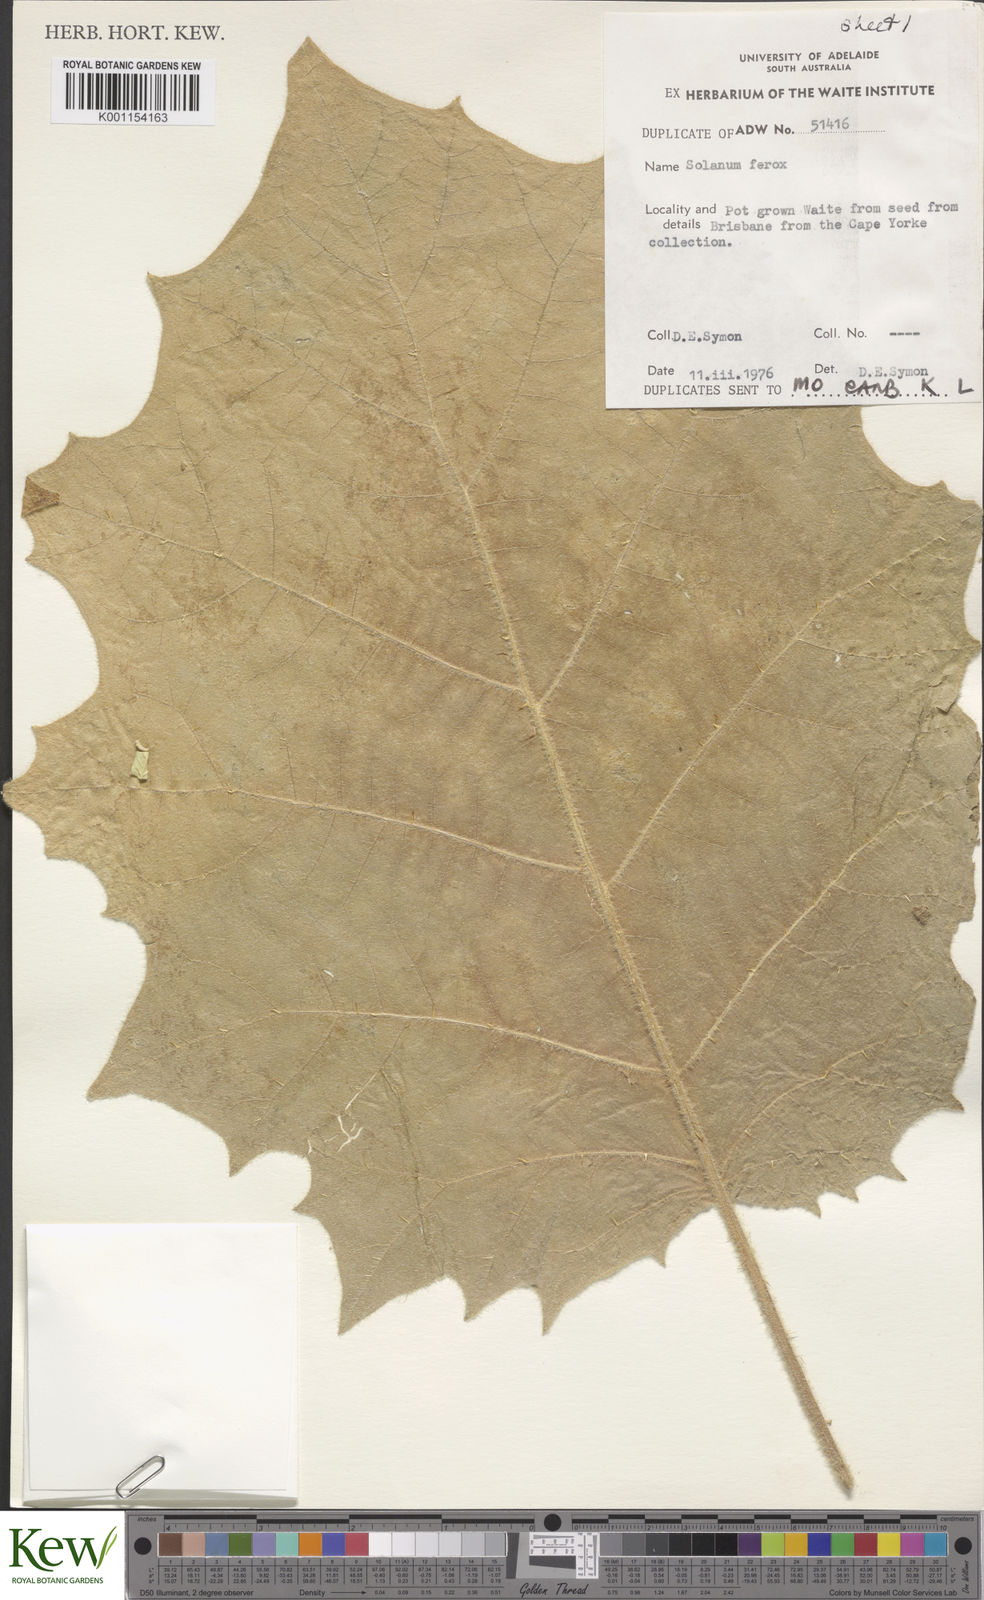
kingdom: Plantae
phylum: Tracheophyta
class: Magnoliopsida
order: Solanales
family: Solanaceae
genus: Solanum
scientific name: Solanum
